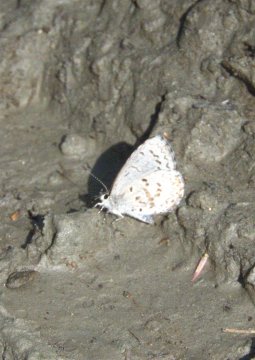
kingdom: Animalia
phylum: Arthropoda
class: Insecta
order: Lepidoptera
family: Lycaenidae
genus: Celastrina
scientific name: Celastrina
